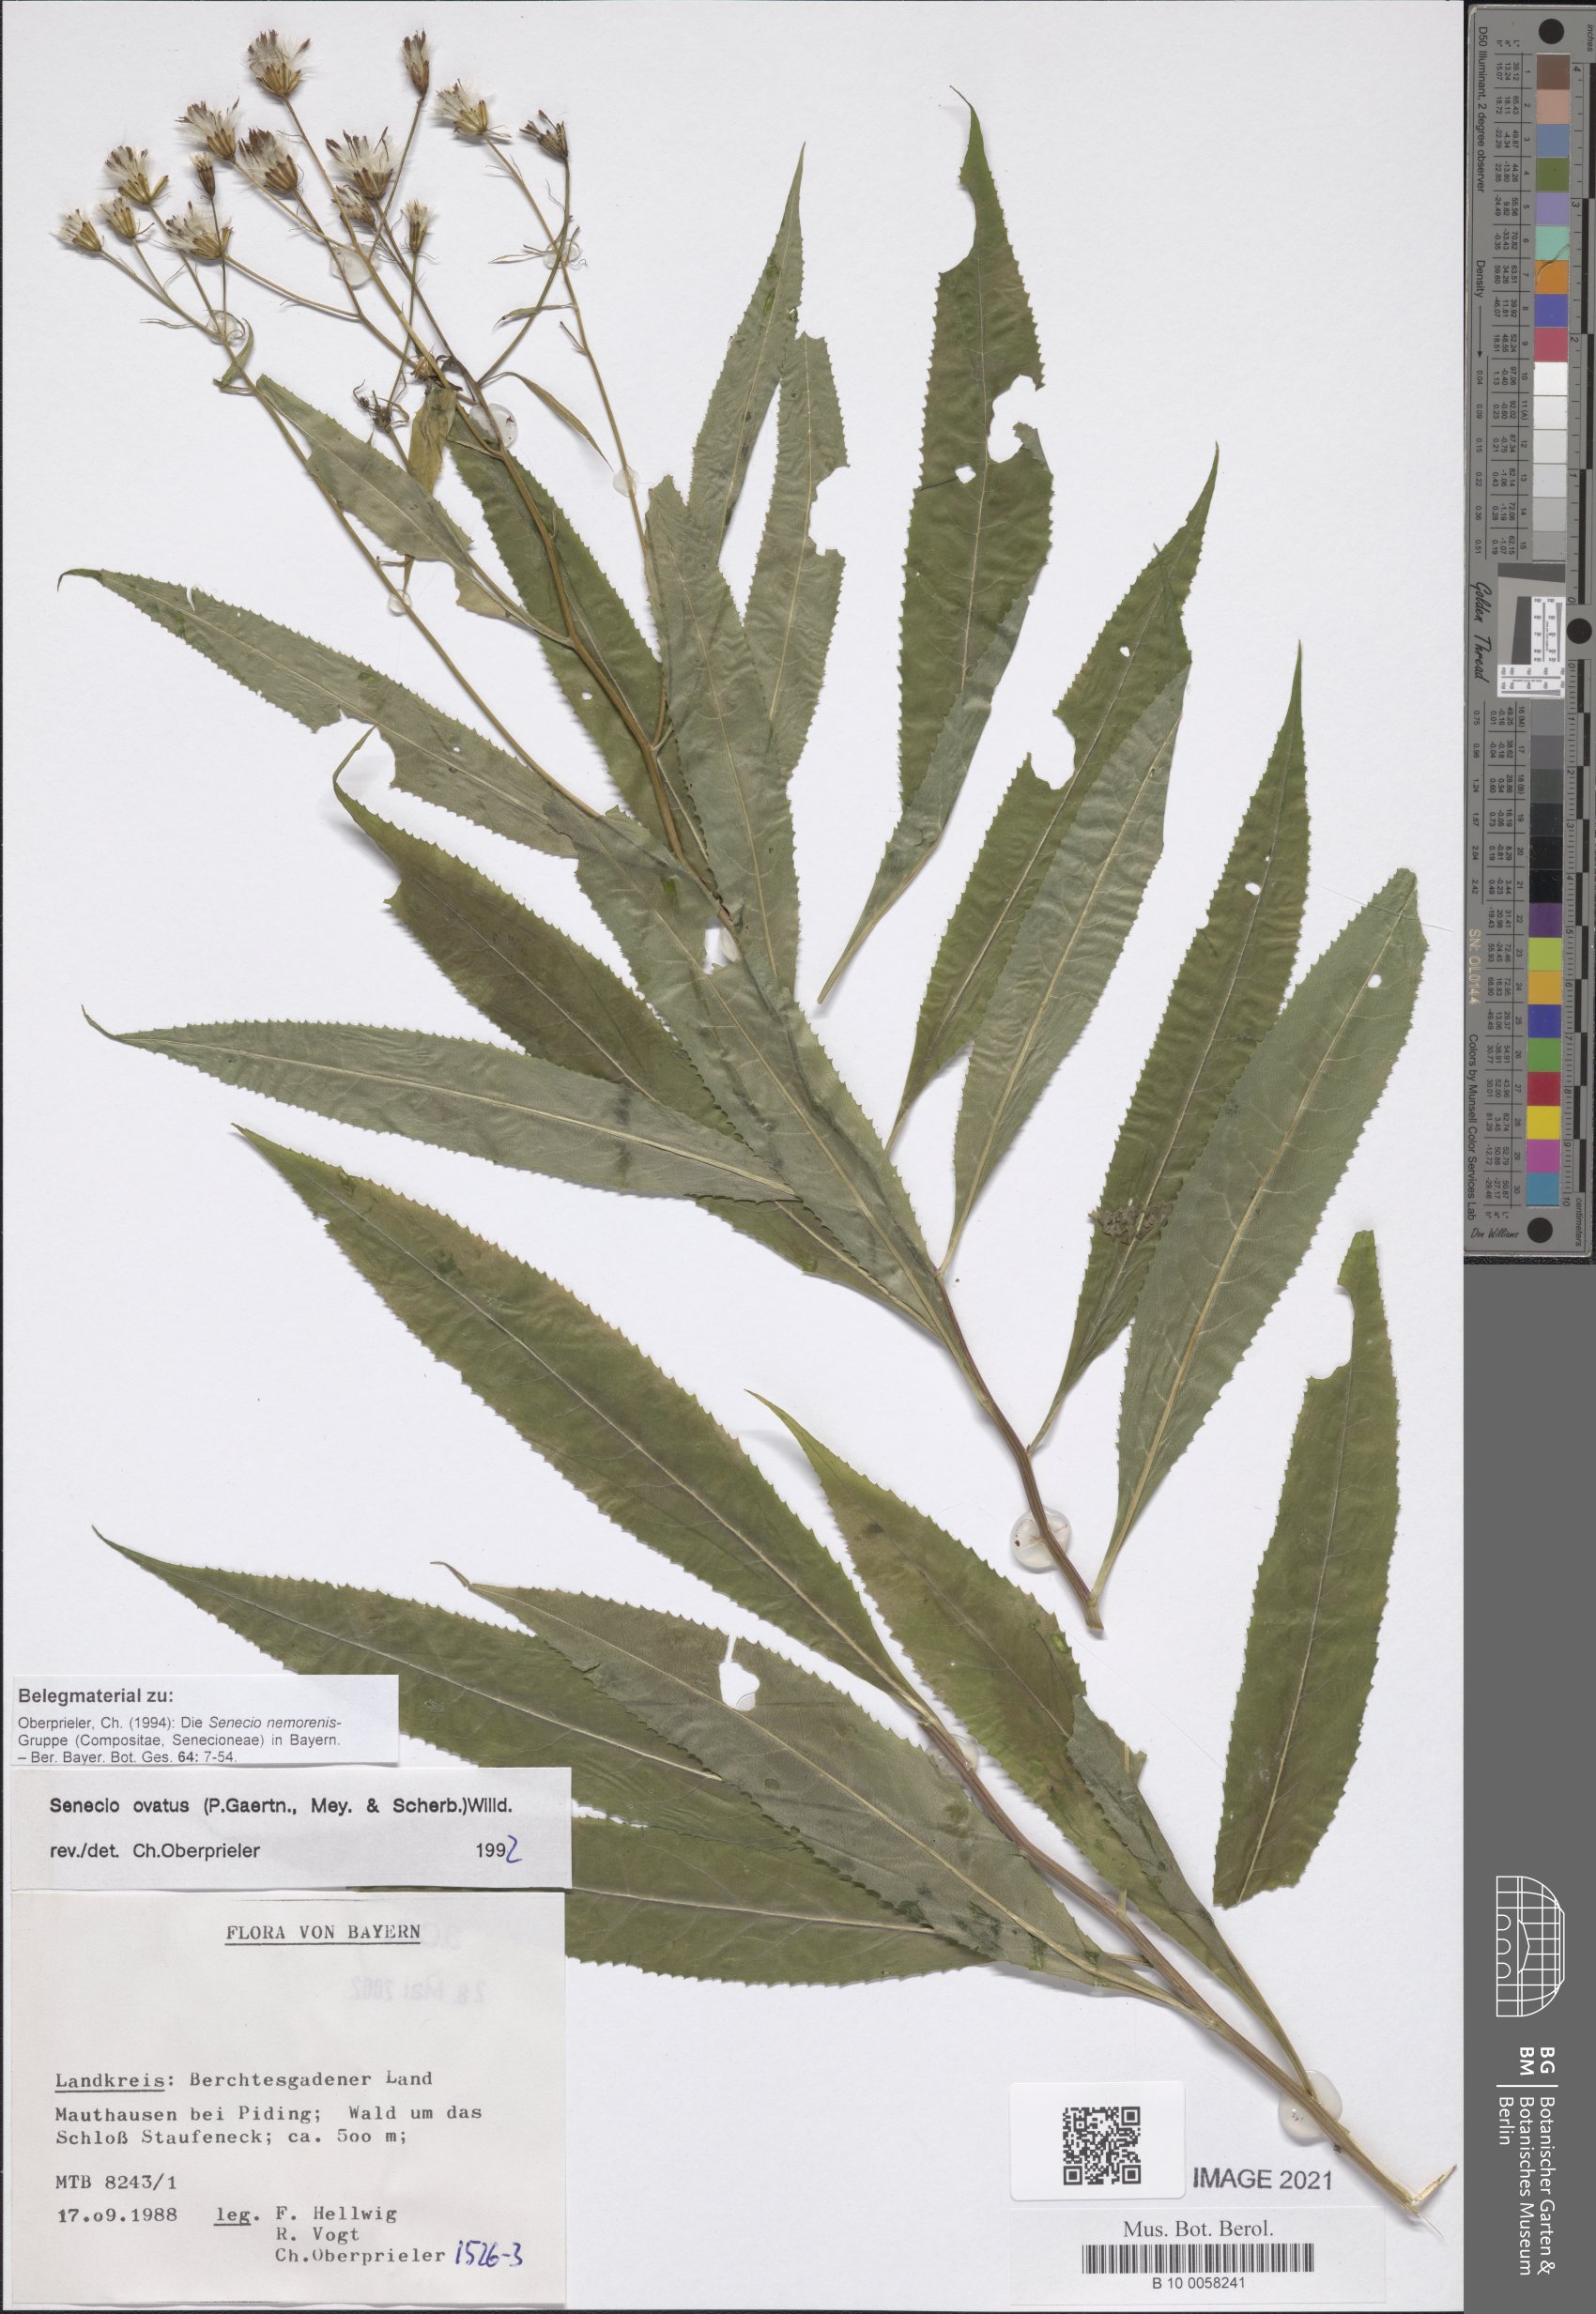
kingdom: Plantae
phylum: Tracheophyta
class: Magnoliopsida
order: Asterales
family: Asteraceae
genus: Senecio
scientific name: Senecio ovatus
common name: Wood ragwort
